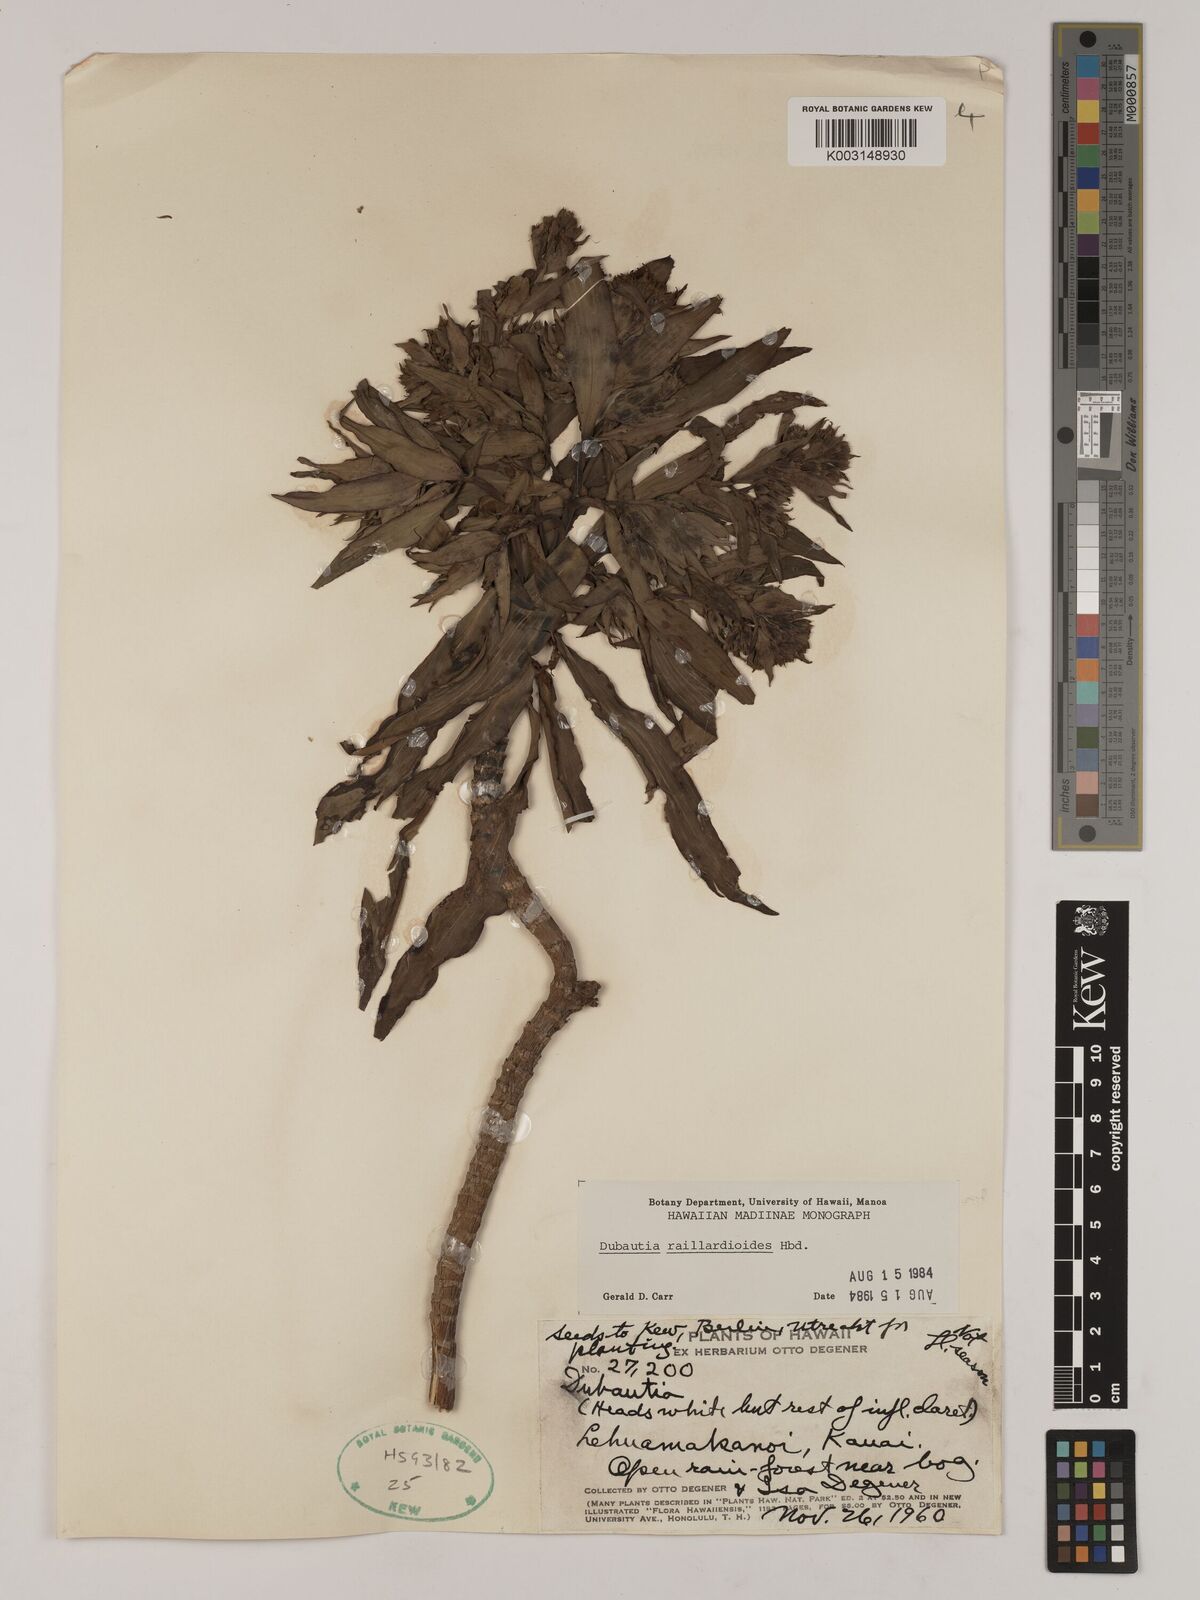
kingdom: Plantae
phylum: Tracheophyta
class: Magnoliopsida
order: Asterales
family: Asteraceae
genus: Dubautia
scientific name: Dubautia raillardioides
